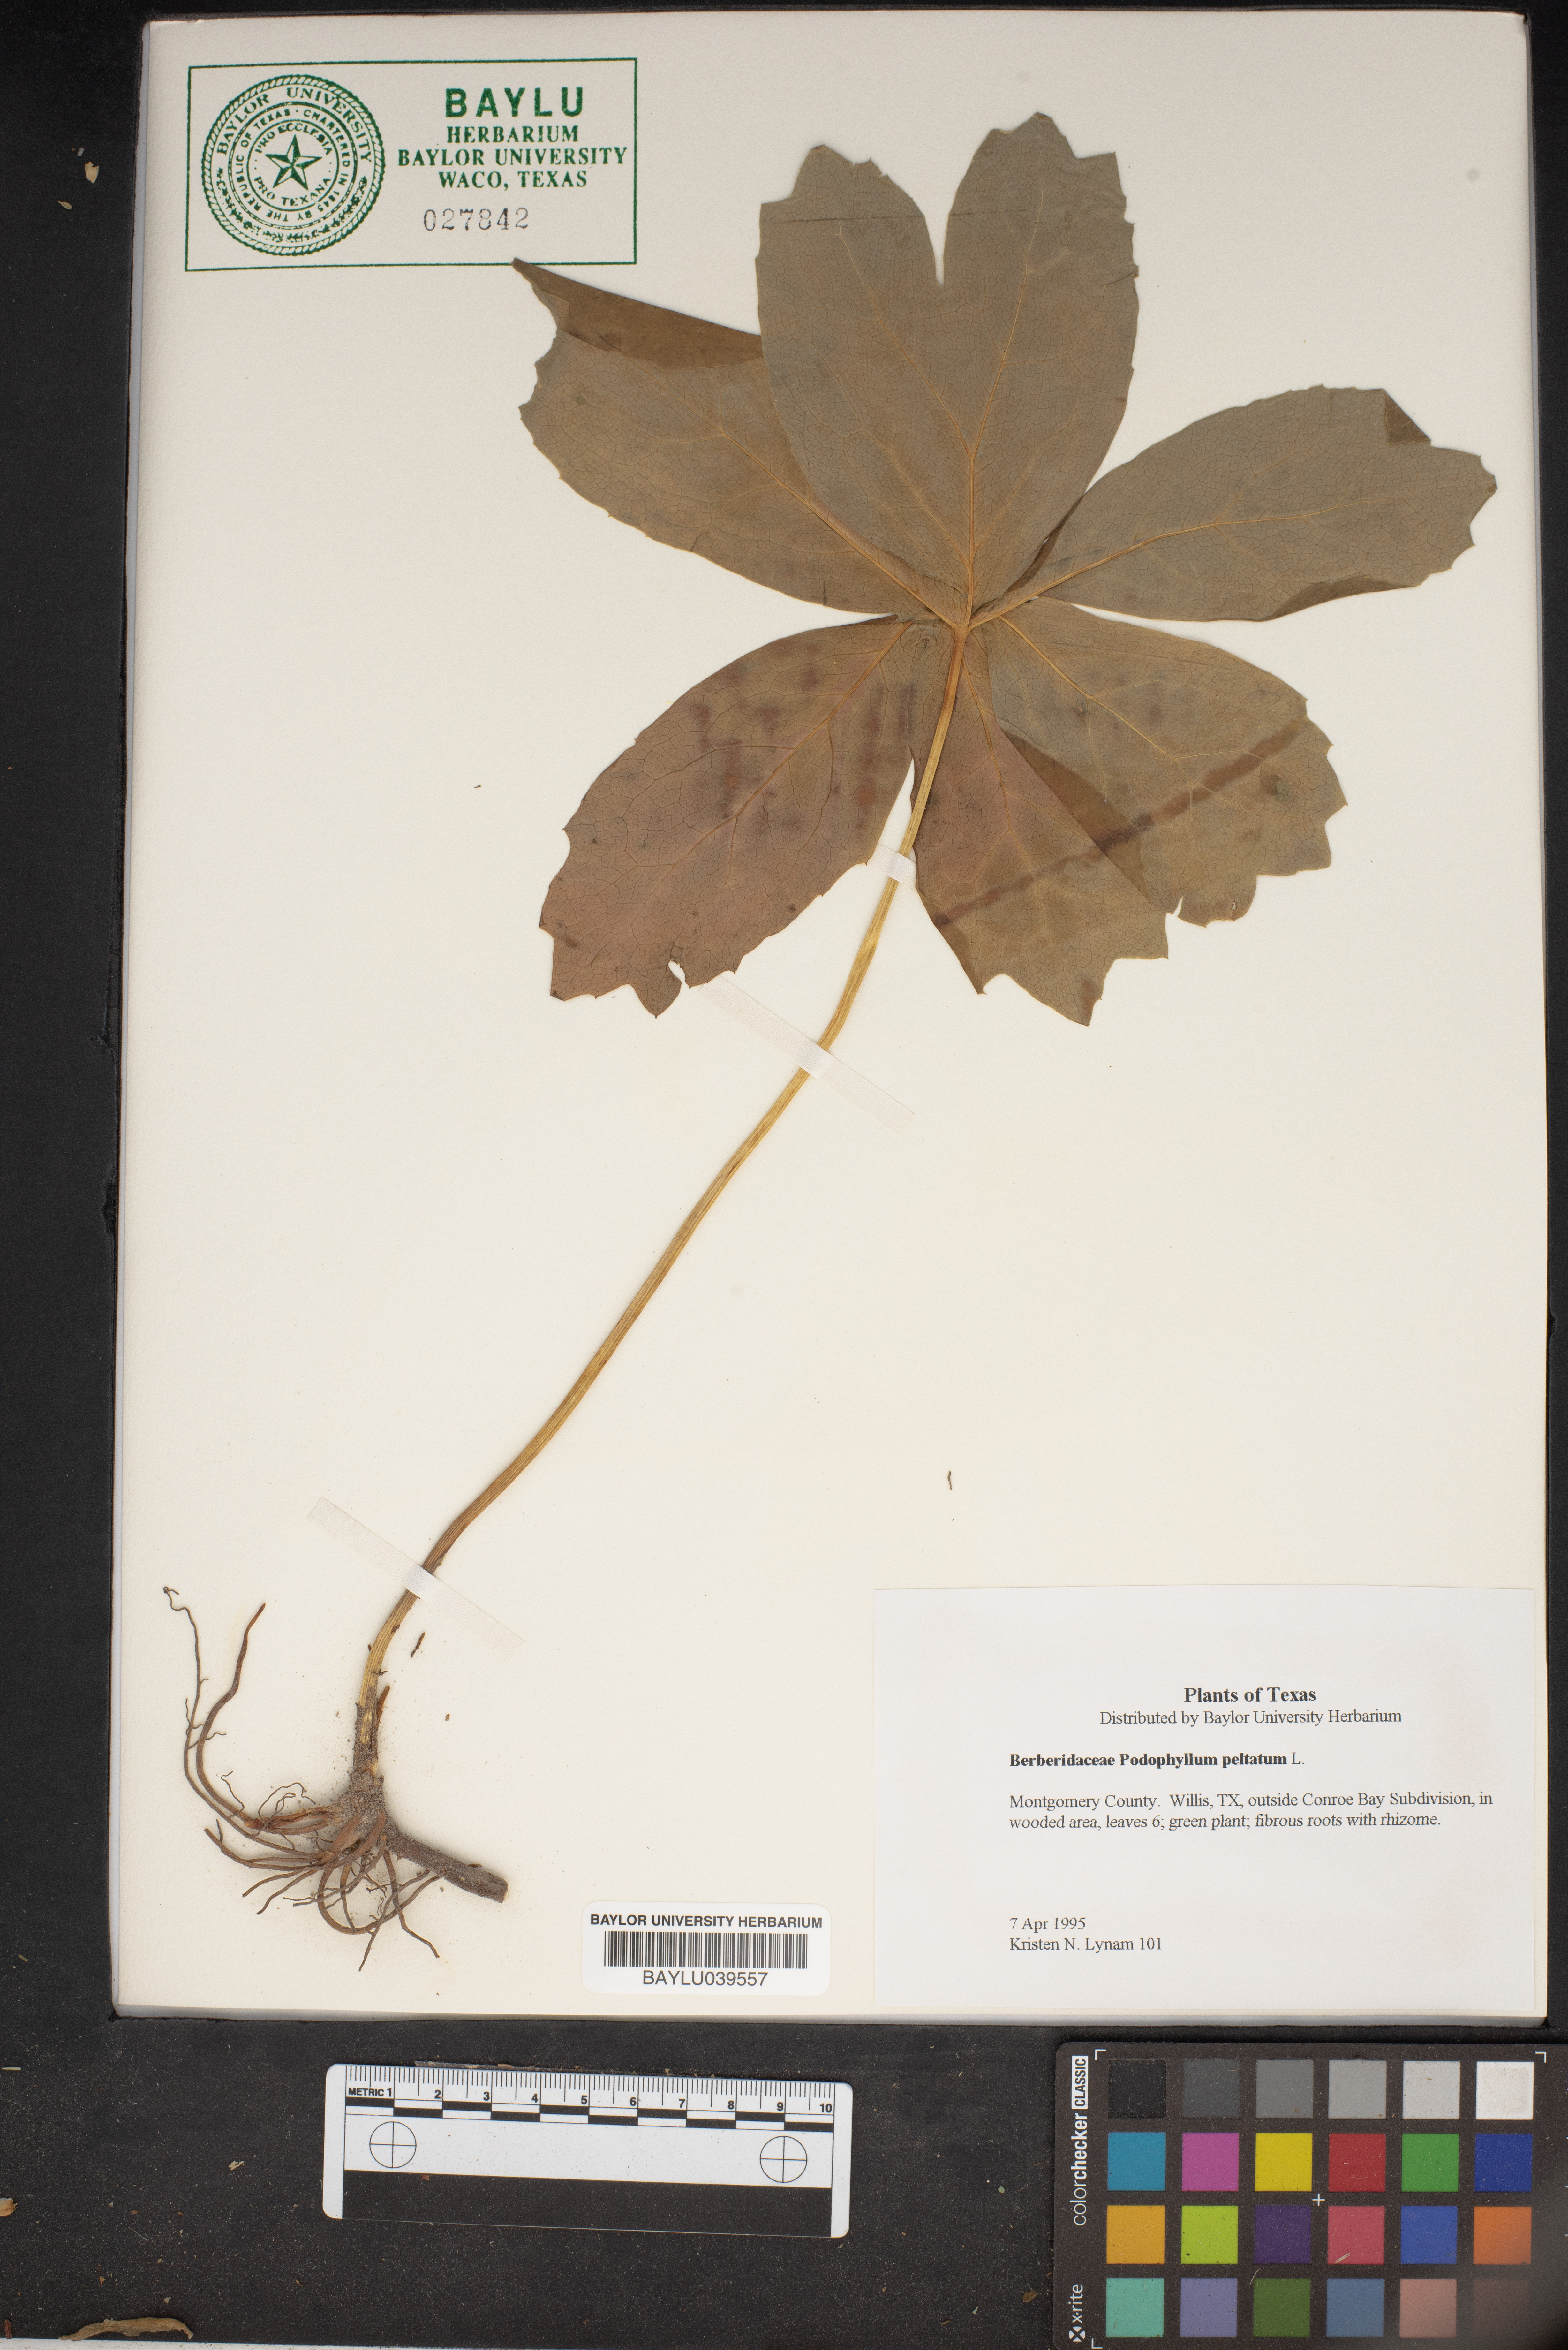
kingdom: Plantae
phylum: Tracheophyta
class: Magnoliopsida
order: Ranunculales
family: Berberidaceae
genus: Podophyllum
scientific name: Podophyllum peltatum
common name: Wild mandrake
